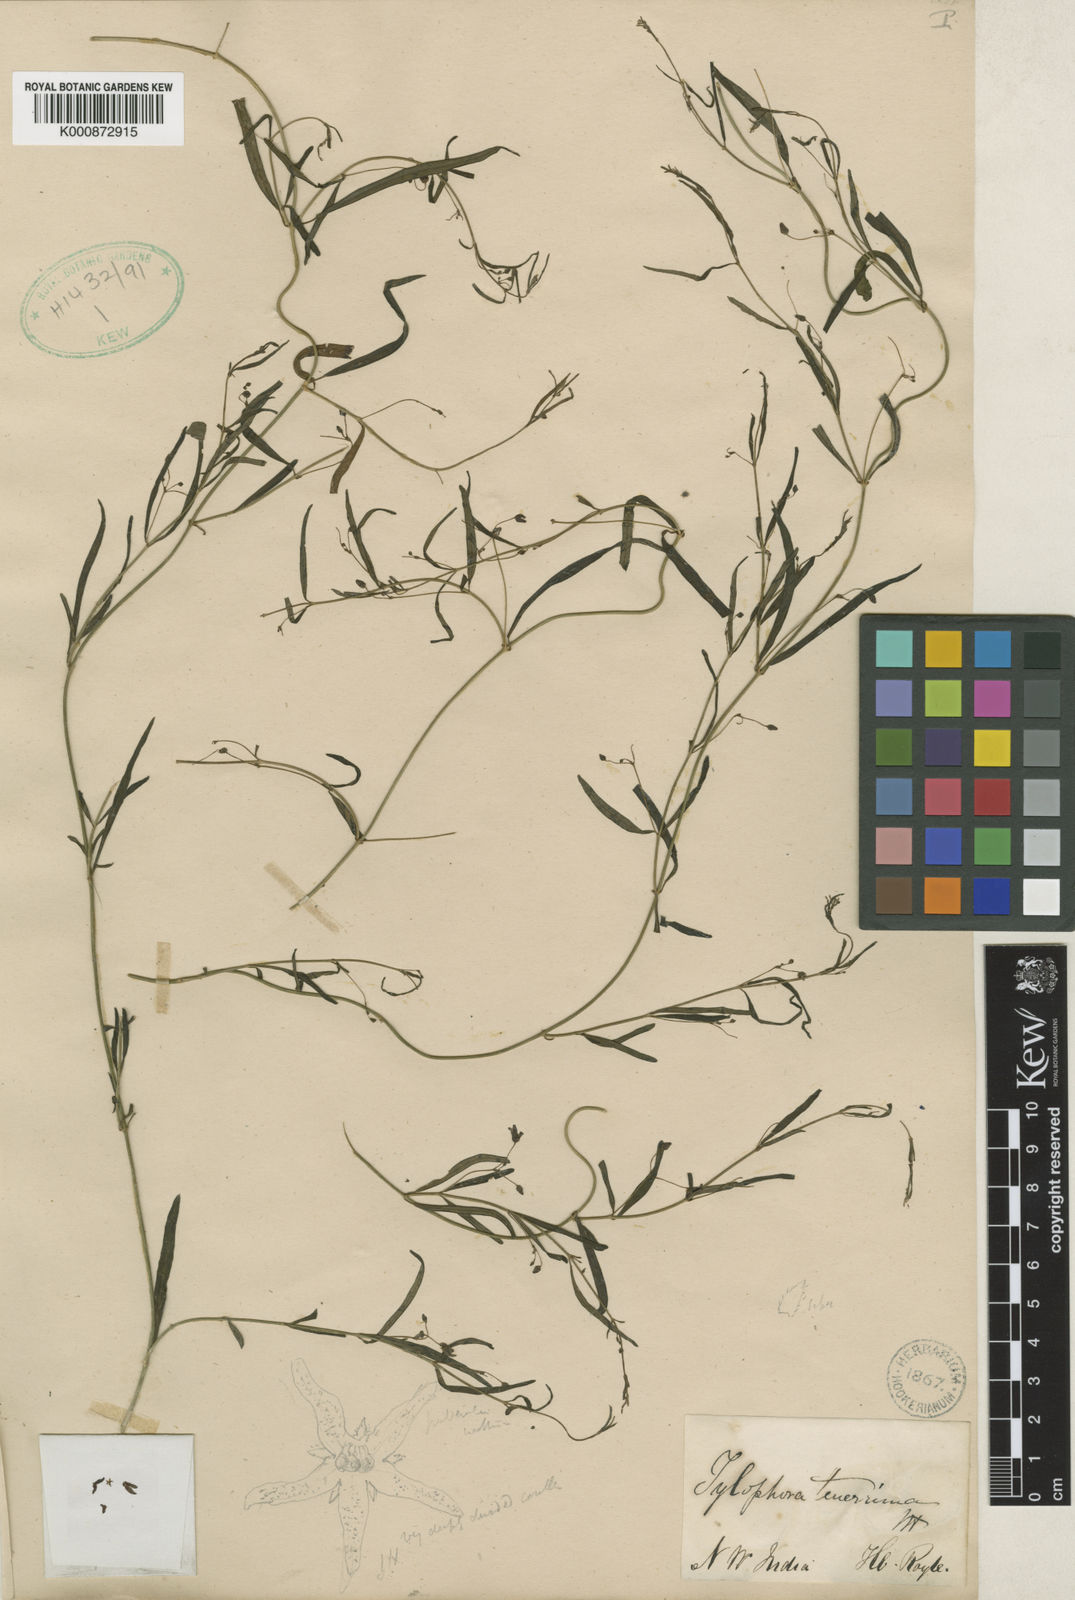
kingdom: Plantae
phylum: Tracheophyta
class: Magnoliopsida
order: Gentianales
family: Apocynaceae
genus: Vincetoxicum
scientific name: Vincetoxicum tenerrimum
